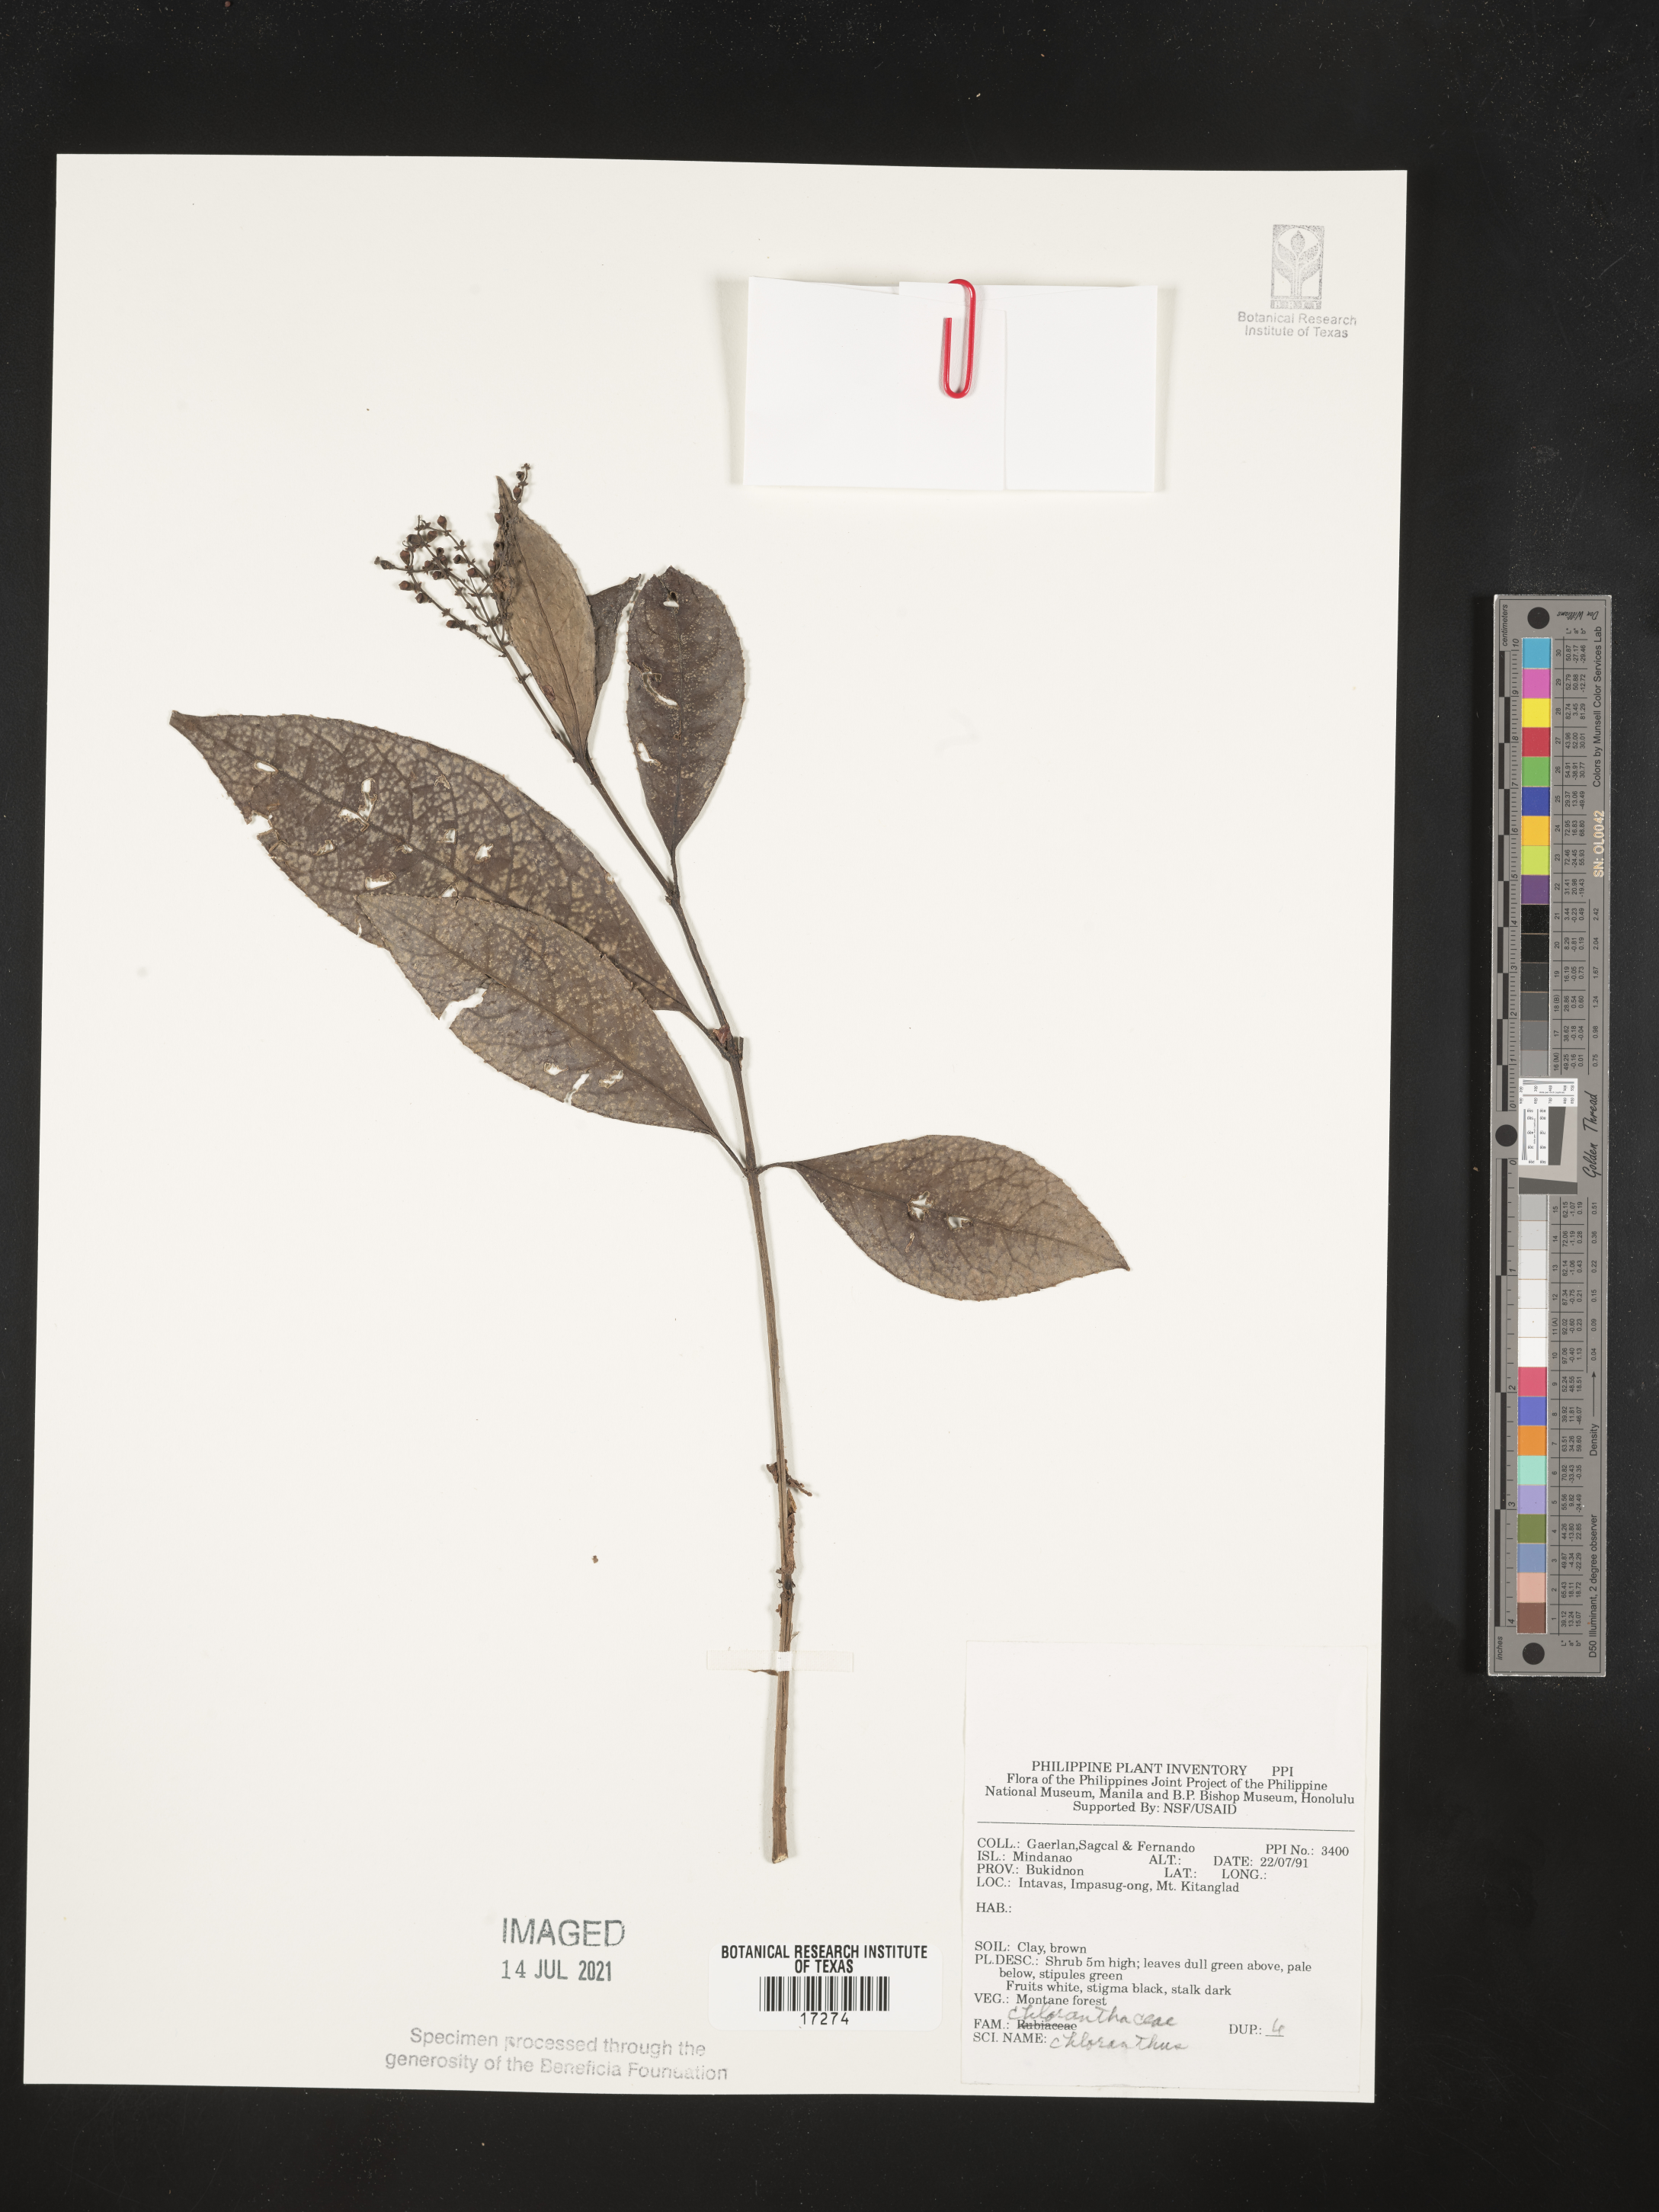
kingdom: Plantae
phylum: Tracheophyta
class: Magnoliopsida
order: Chloranthales
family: Chloranthaceae
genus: Chloranthus
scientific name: Chloranthus
